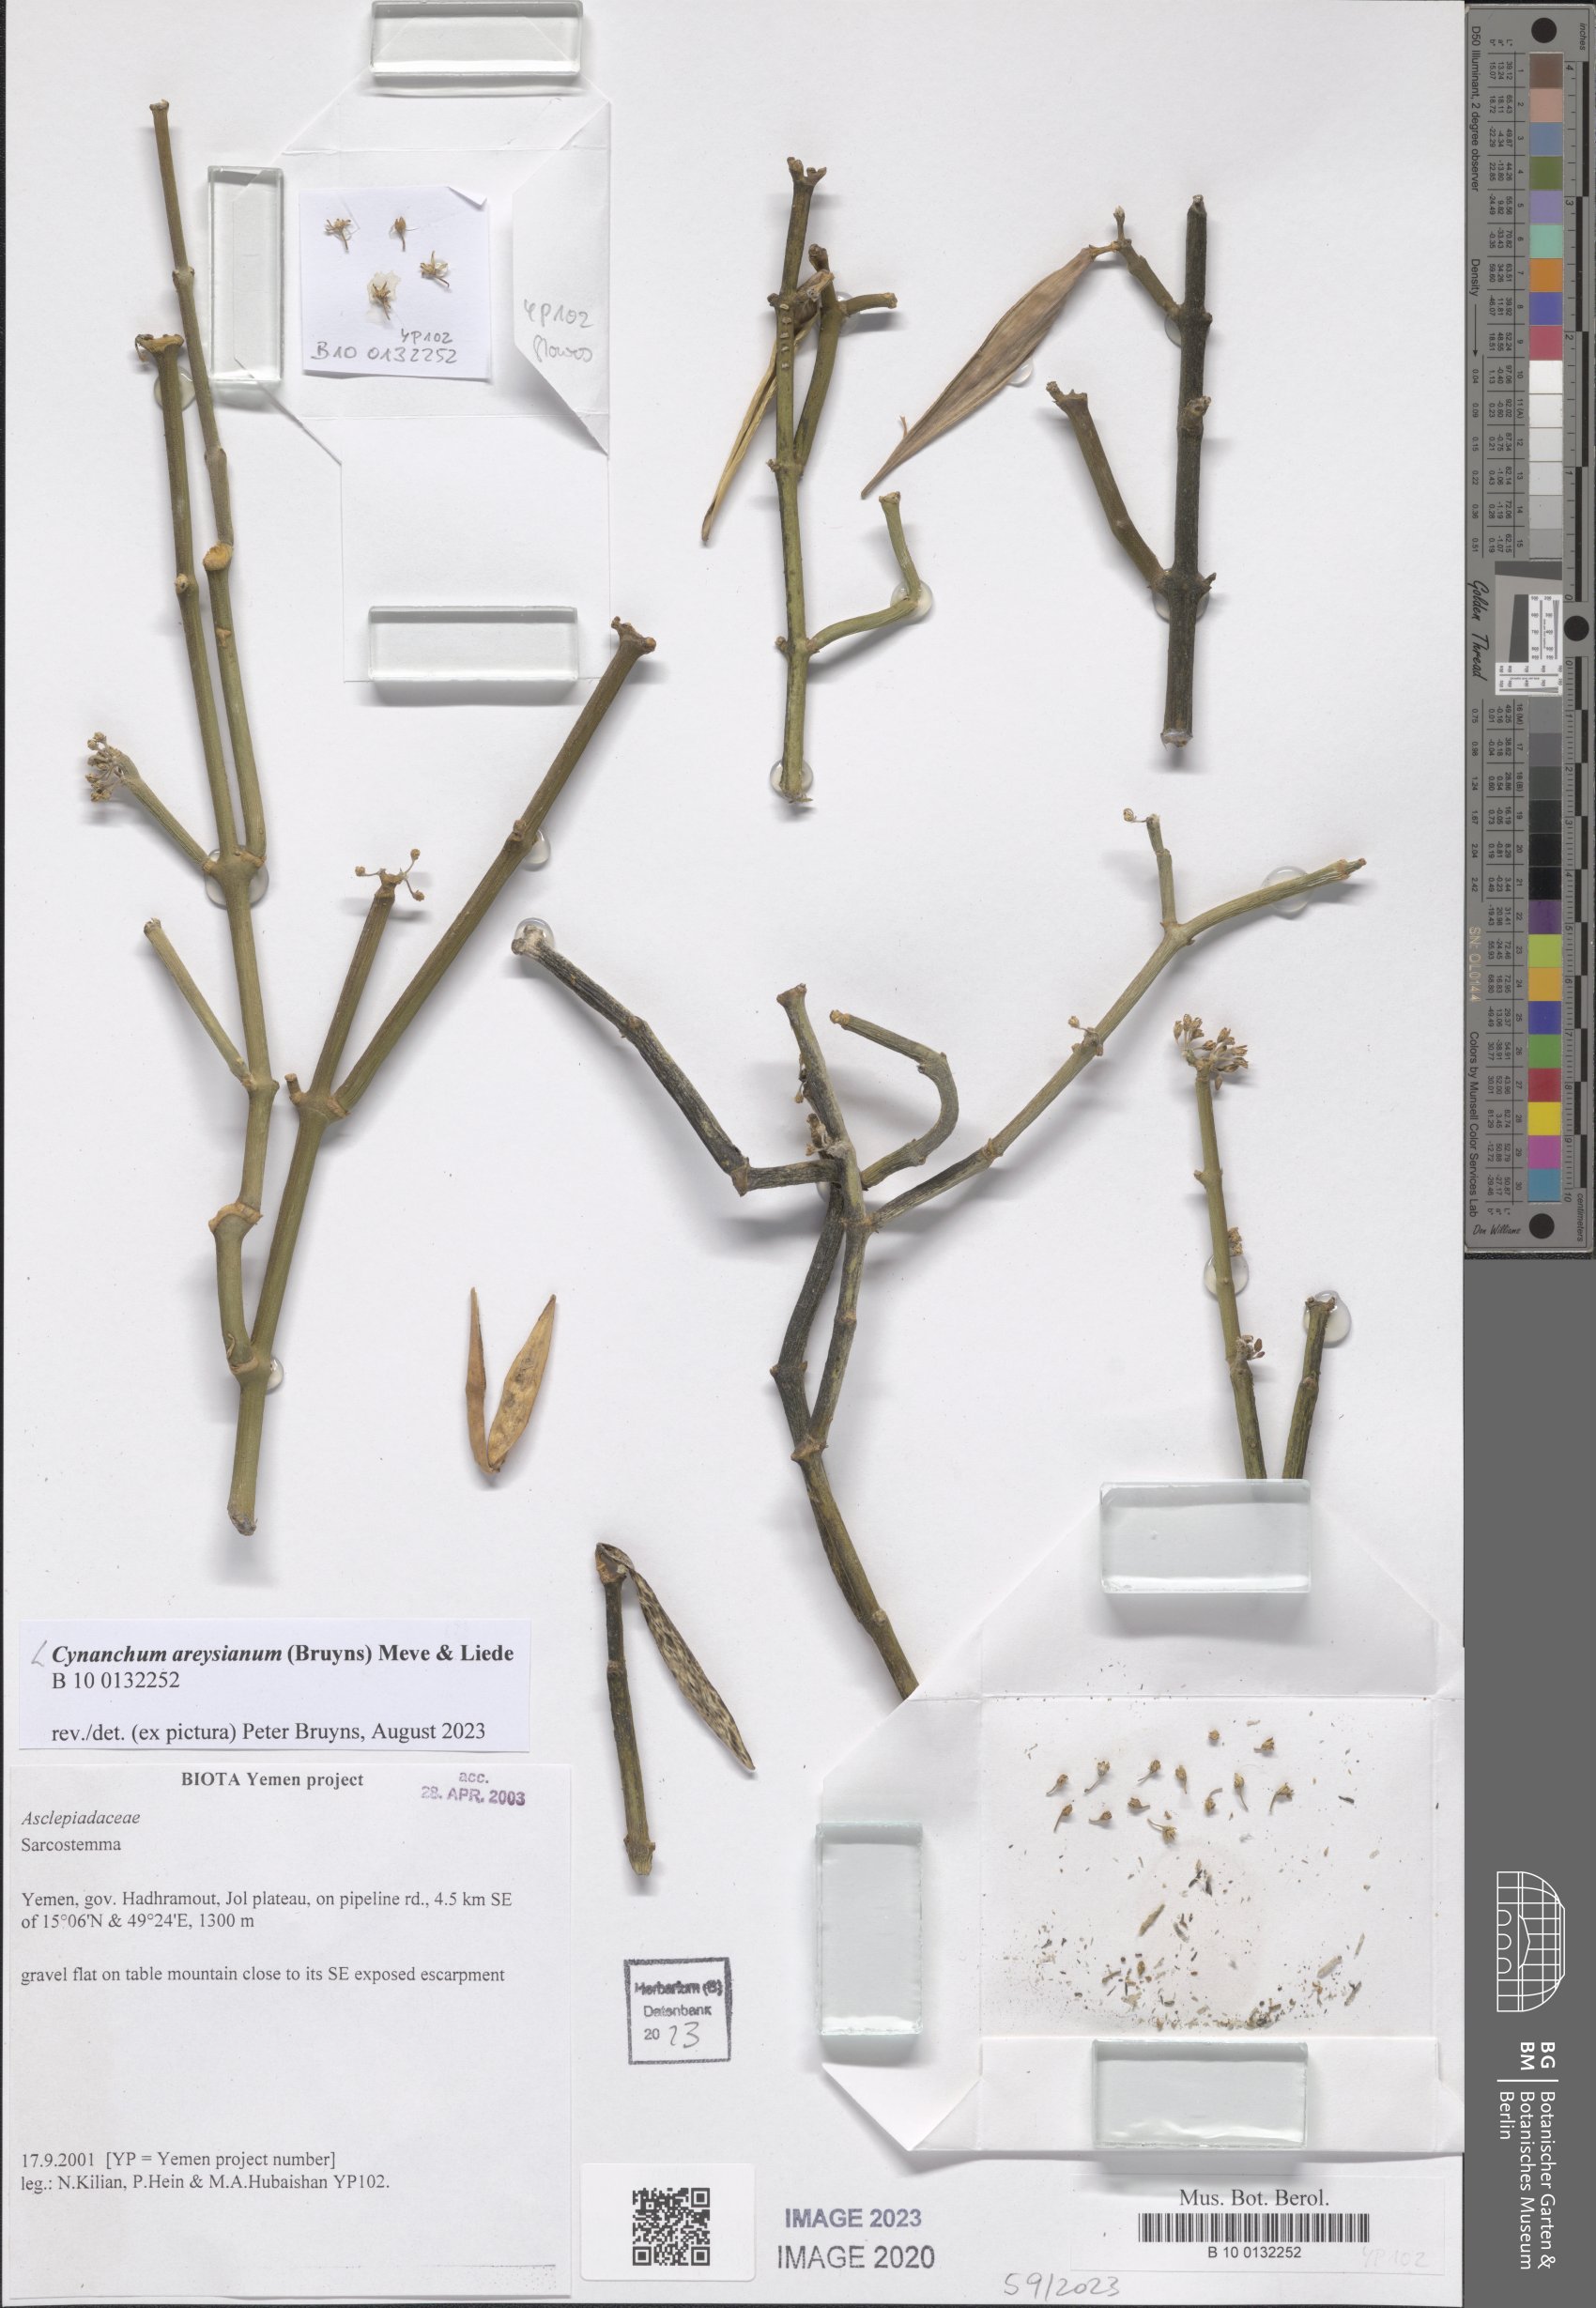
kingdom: Plantae
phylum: Tracheophyta
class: Magnoliopsida
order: Gentianales
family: Apocynaceae
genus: Cynanchum
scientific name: Cynanchum areysianum
